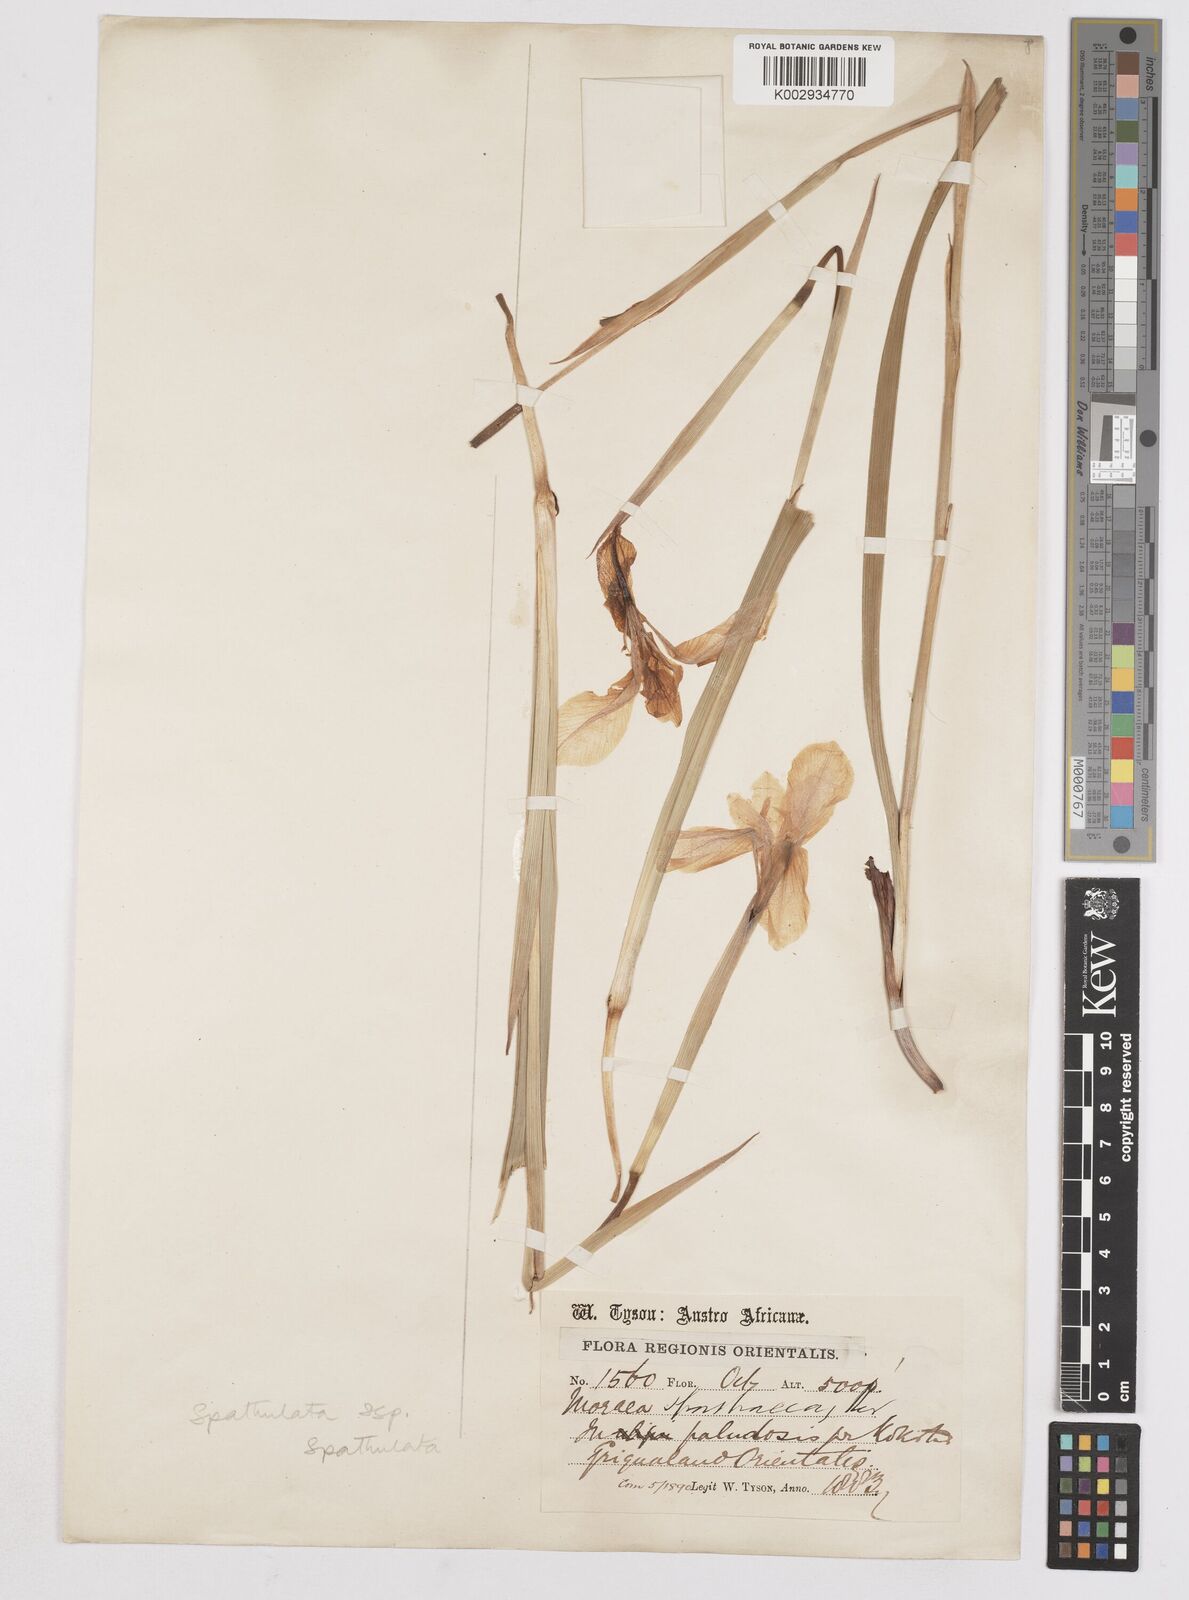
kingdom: Plantae
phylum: Tracheophyta
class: Liliopsida
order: Asparagales
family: Iridaceae
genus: Moraea
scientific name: Moraea spathulata
